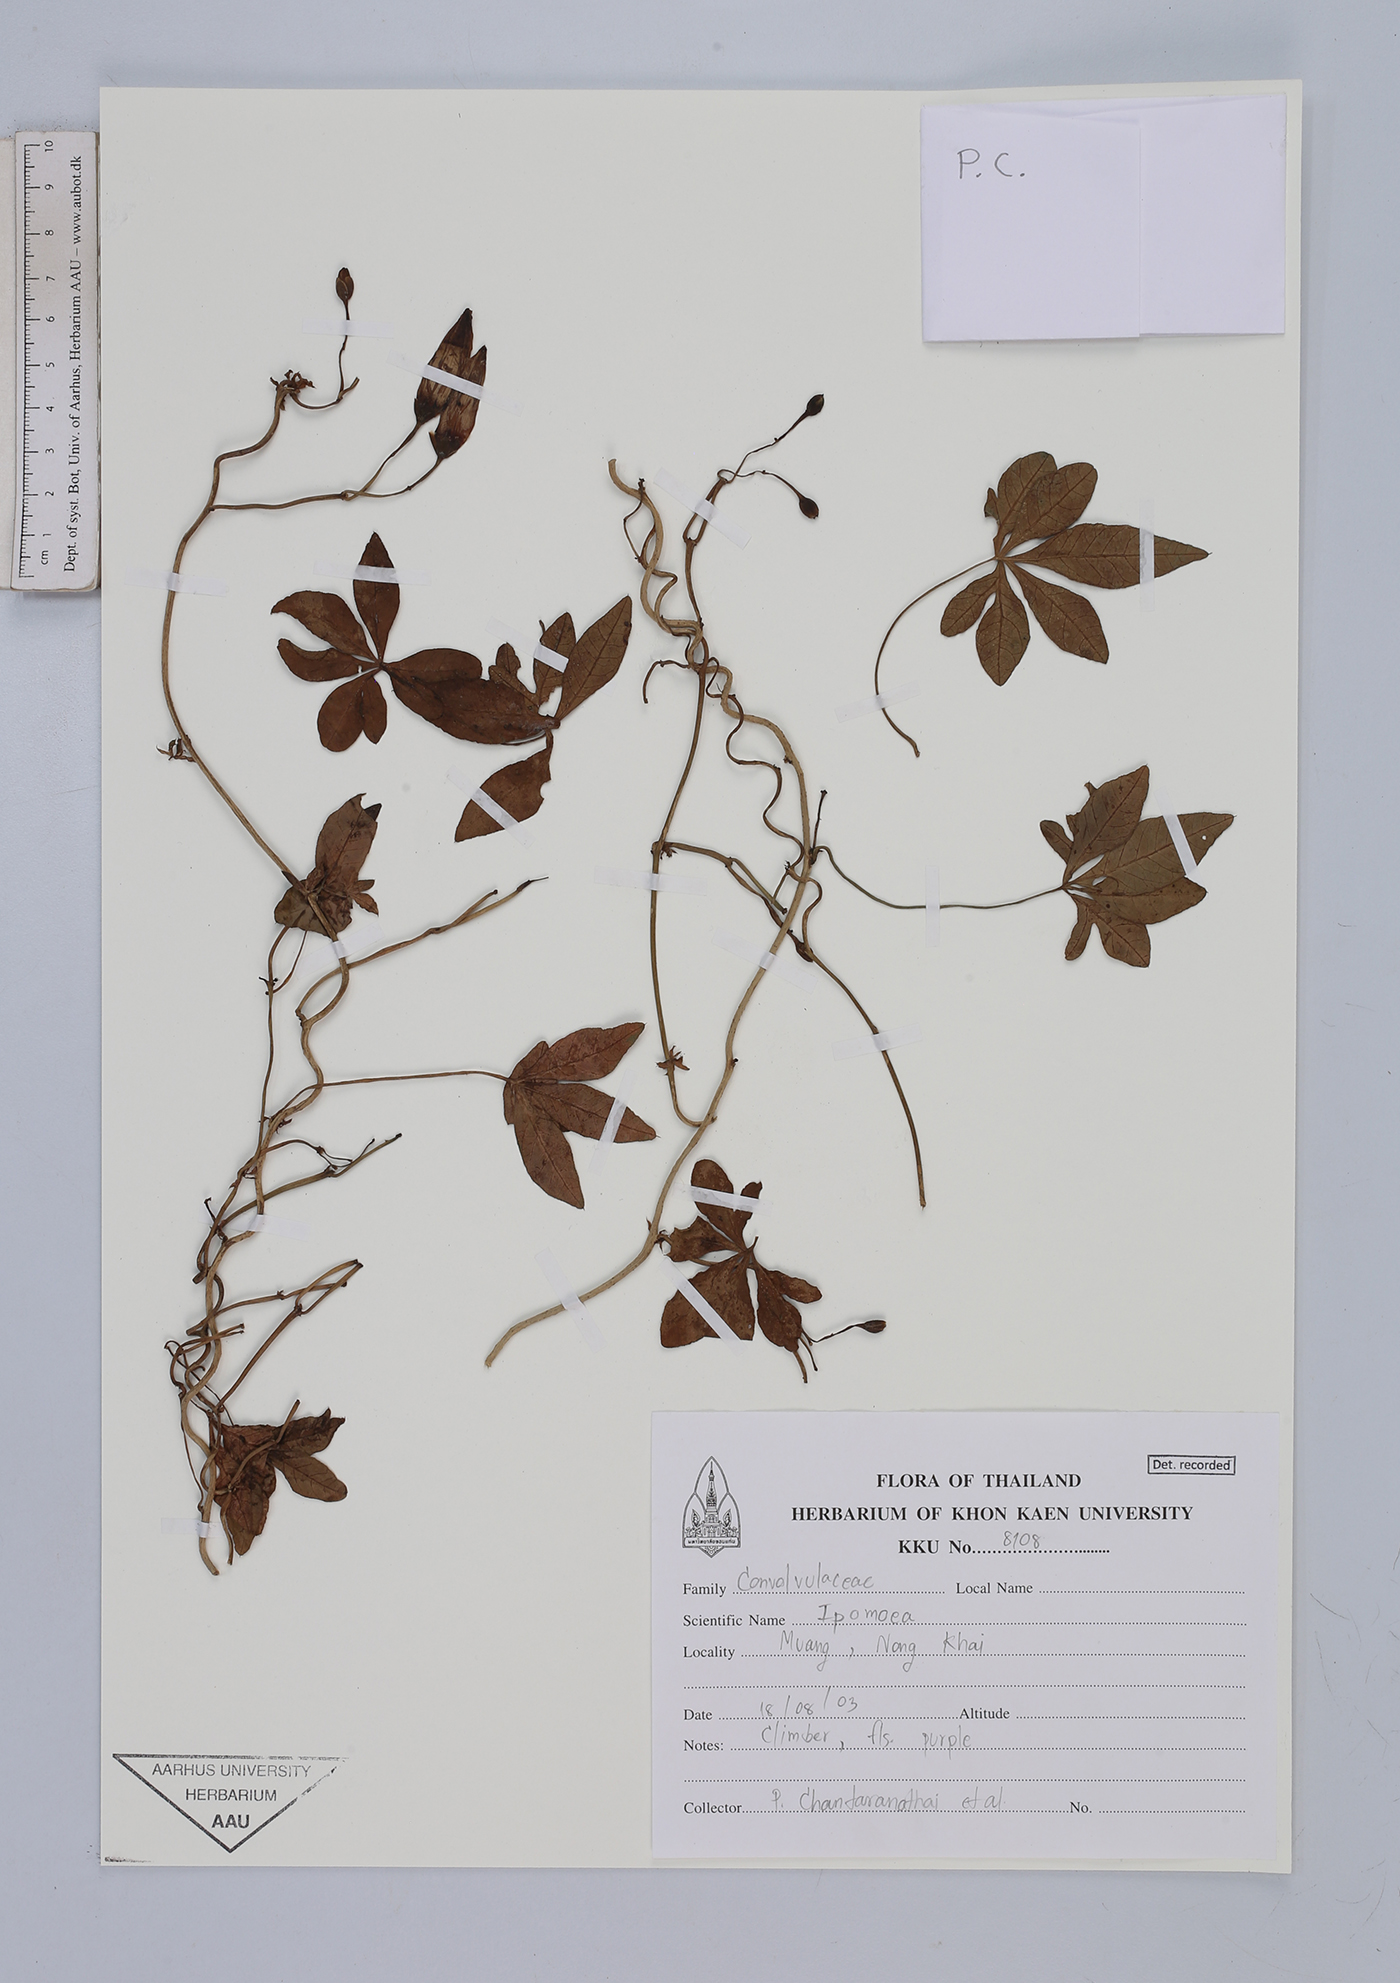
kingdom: Plantae
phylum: Tracheophyta
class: Magnoliopsida
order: Solanales
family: Convolvulaceae
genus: Ipomoea
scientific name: Ipomoea
